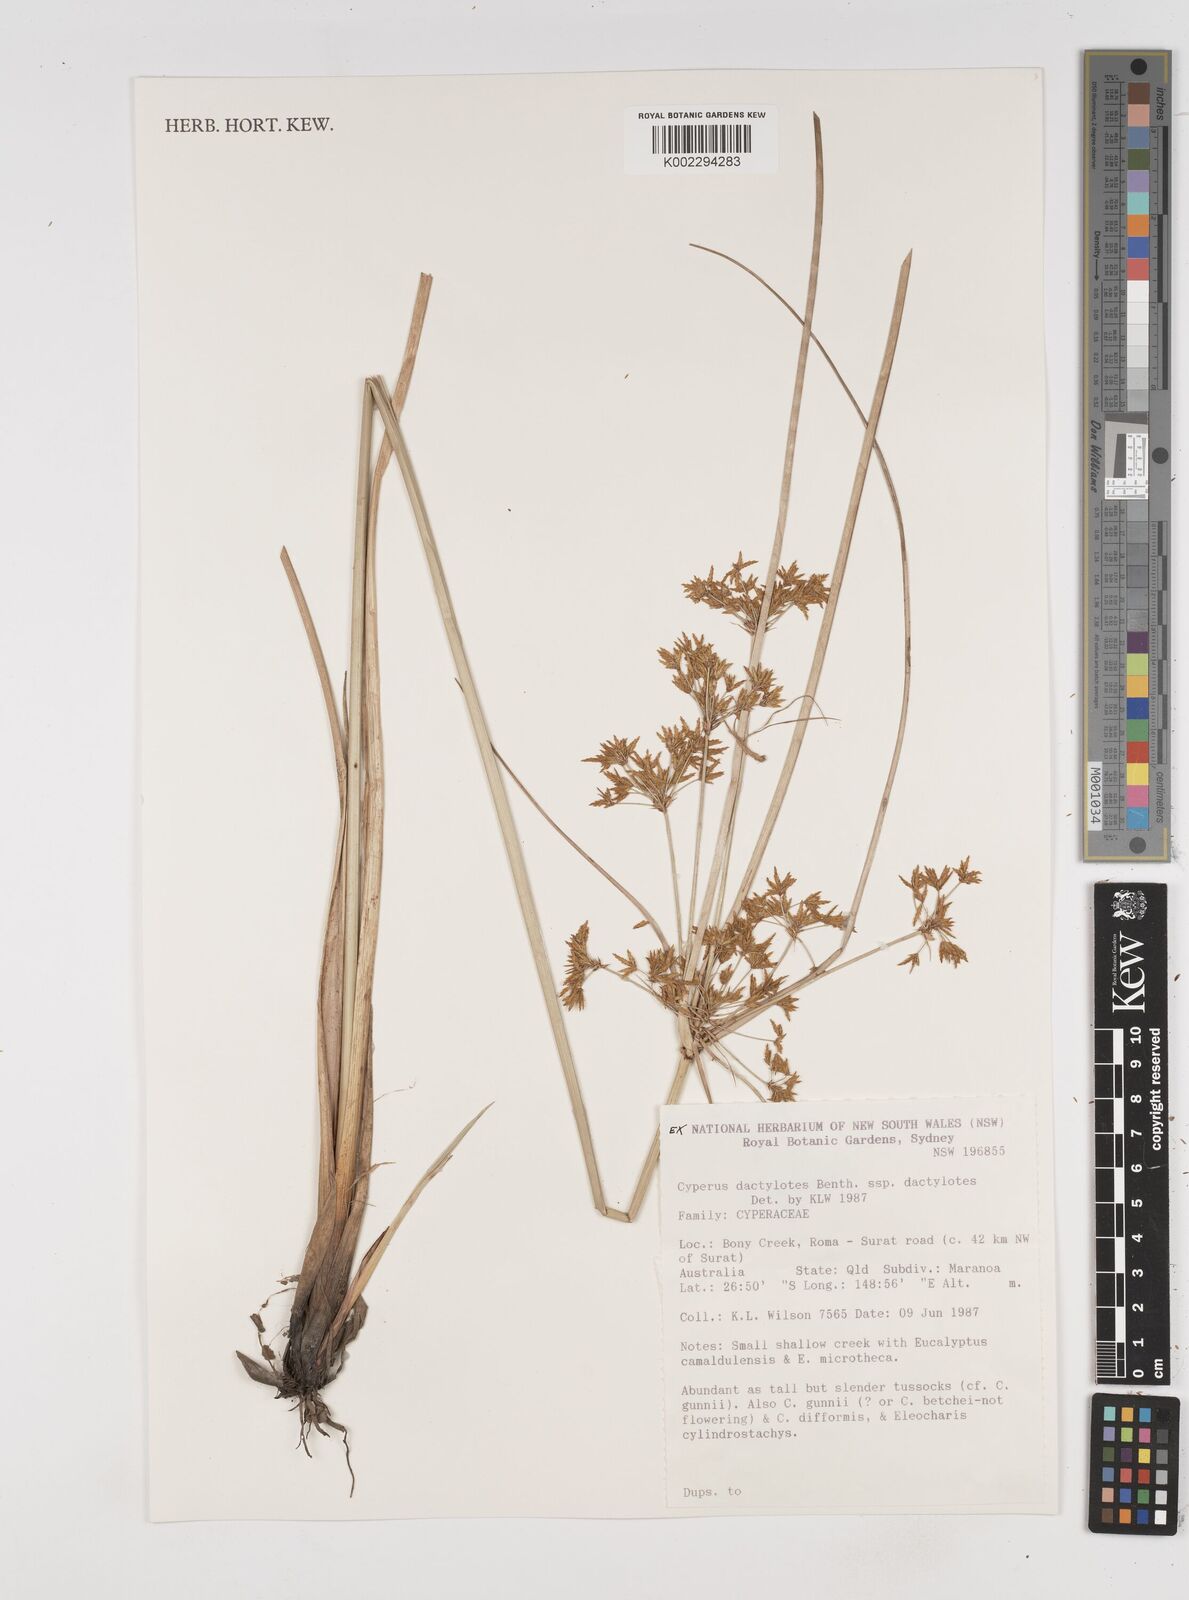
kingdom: Plantae
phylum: Tracheophyta
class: Liliopsida
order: Poales
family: Cyperaceae
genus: Cyperus
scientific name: Cyperus dactylotes
